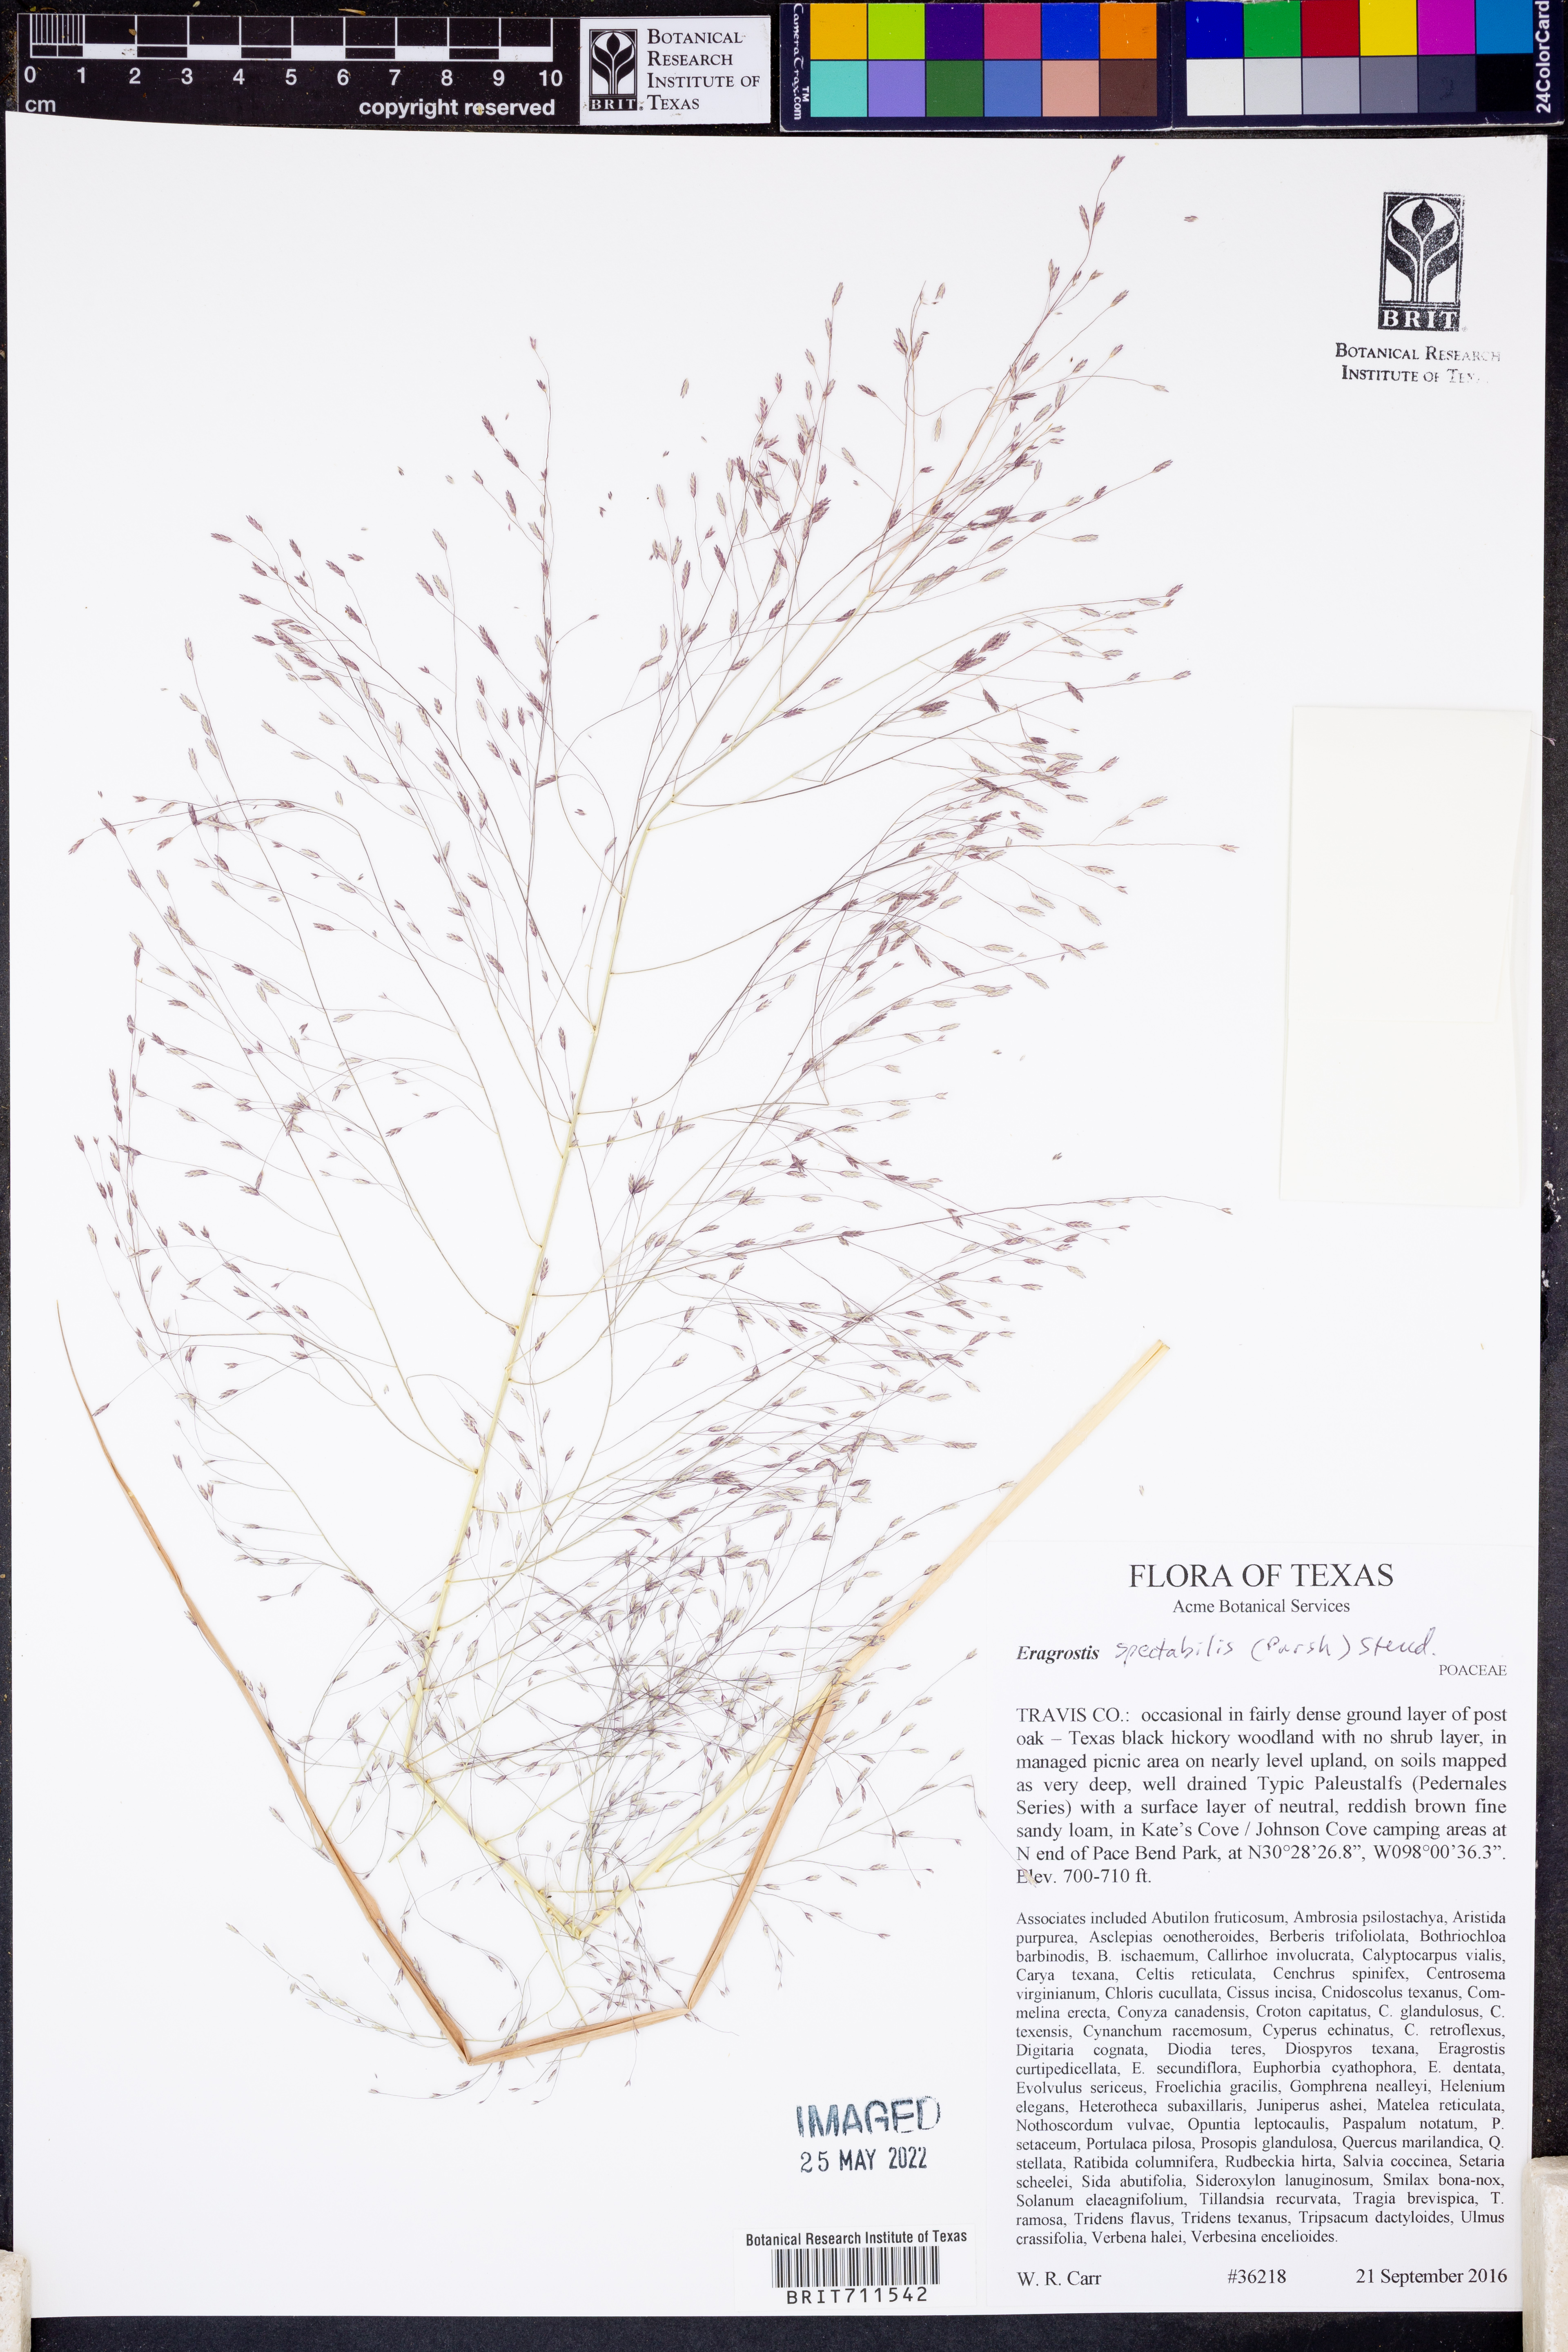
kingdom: Plantae
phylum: Tracheophyta
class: Liliopsida
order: Poales
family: Poaceae
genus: Eragrostis
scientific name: Eragrostis spectabilis
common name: Petticoat-climber
